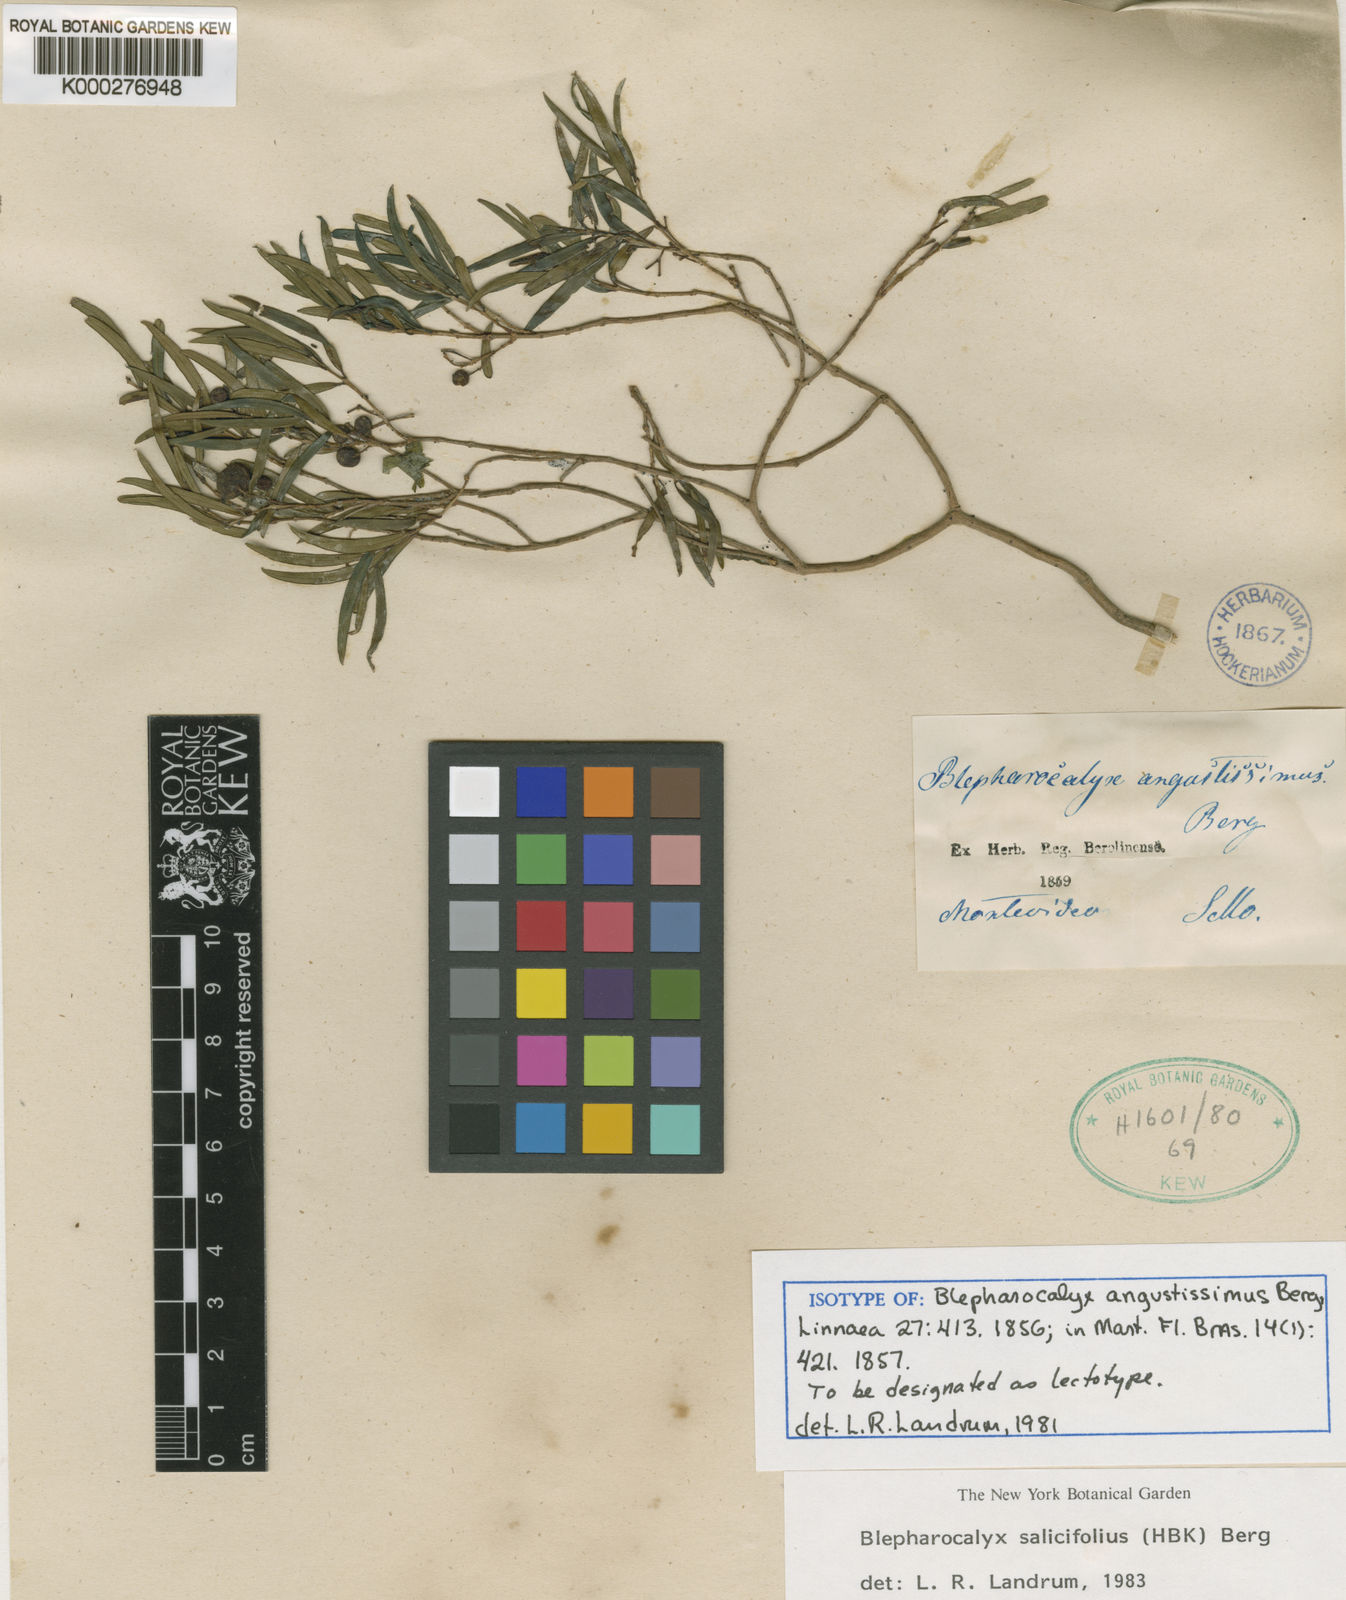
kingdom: Plantae
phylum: Tracheophyta
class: Magnoliopsida
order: Myrtales
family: Myrtaceae
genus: Blepharocalyx
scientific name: Blepharocalyx salicifolius
